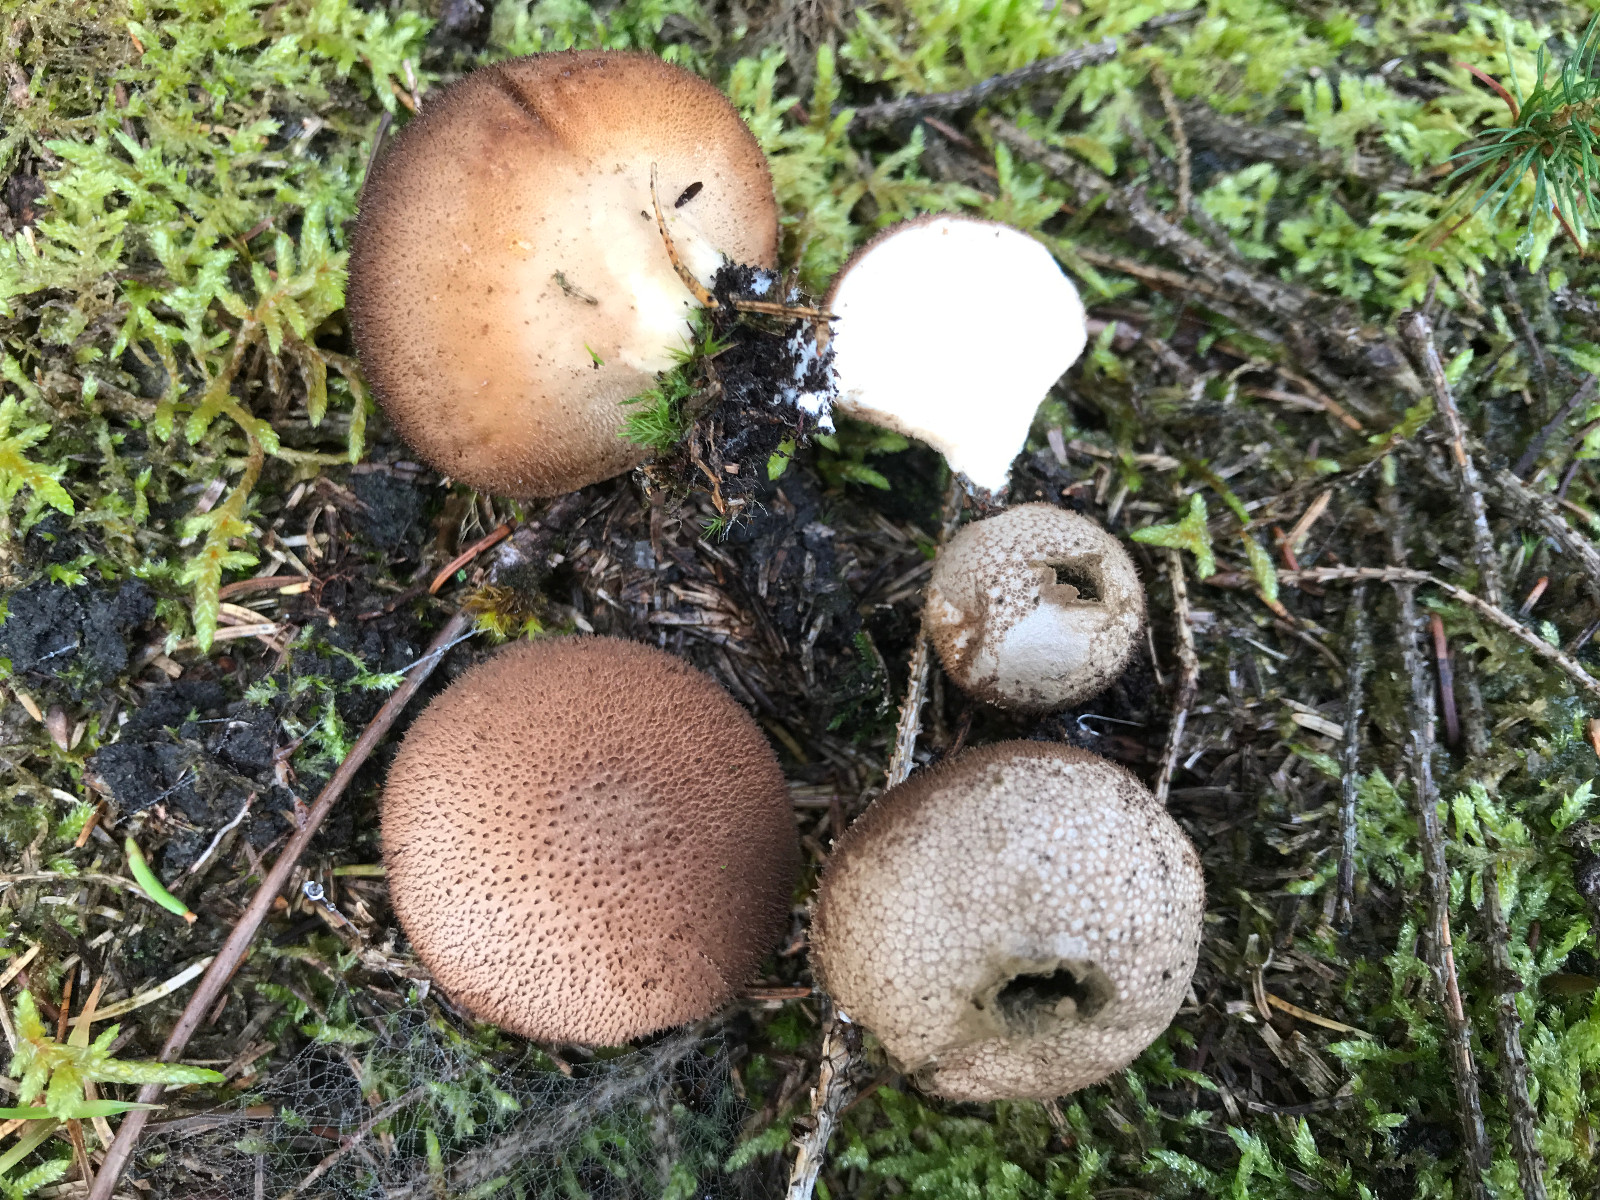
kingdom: Fungi
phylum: Basidiomycota
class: Agaricomycetes
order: Agaricales
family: Lycoperdaceae
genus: Lycoperdon
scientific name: Lycoperdon nigrescens
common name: sortagtig støvbold
